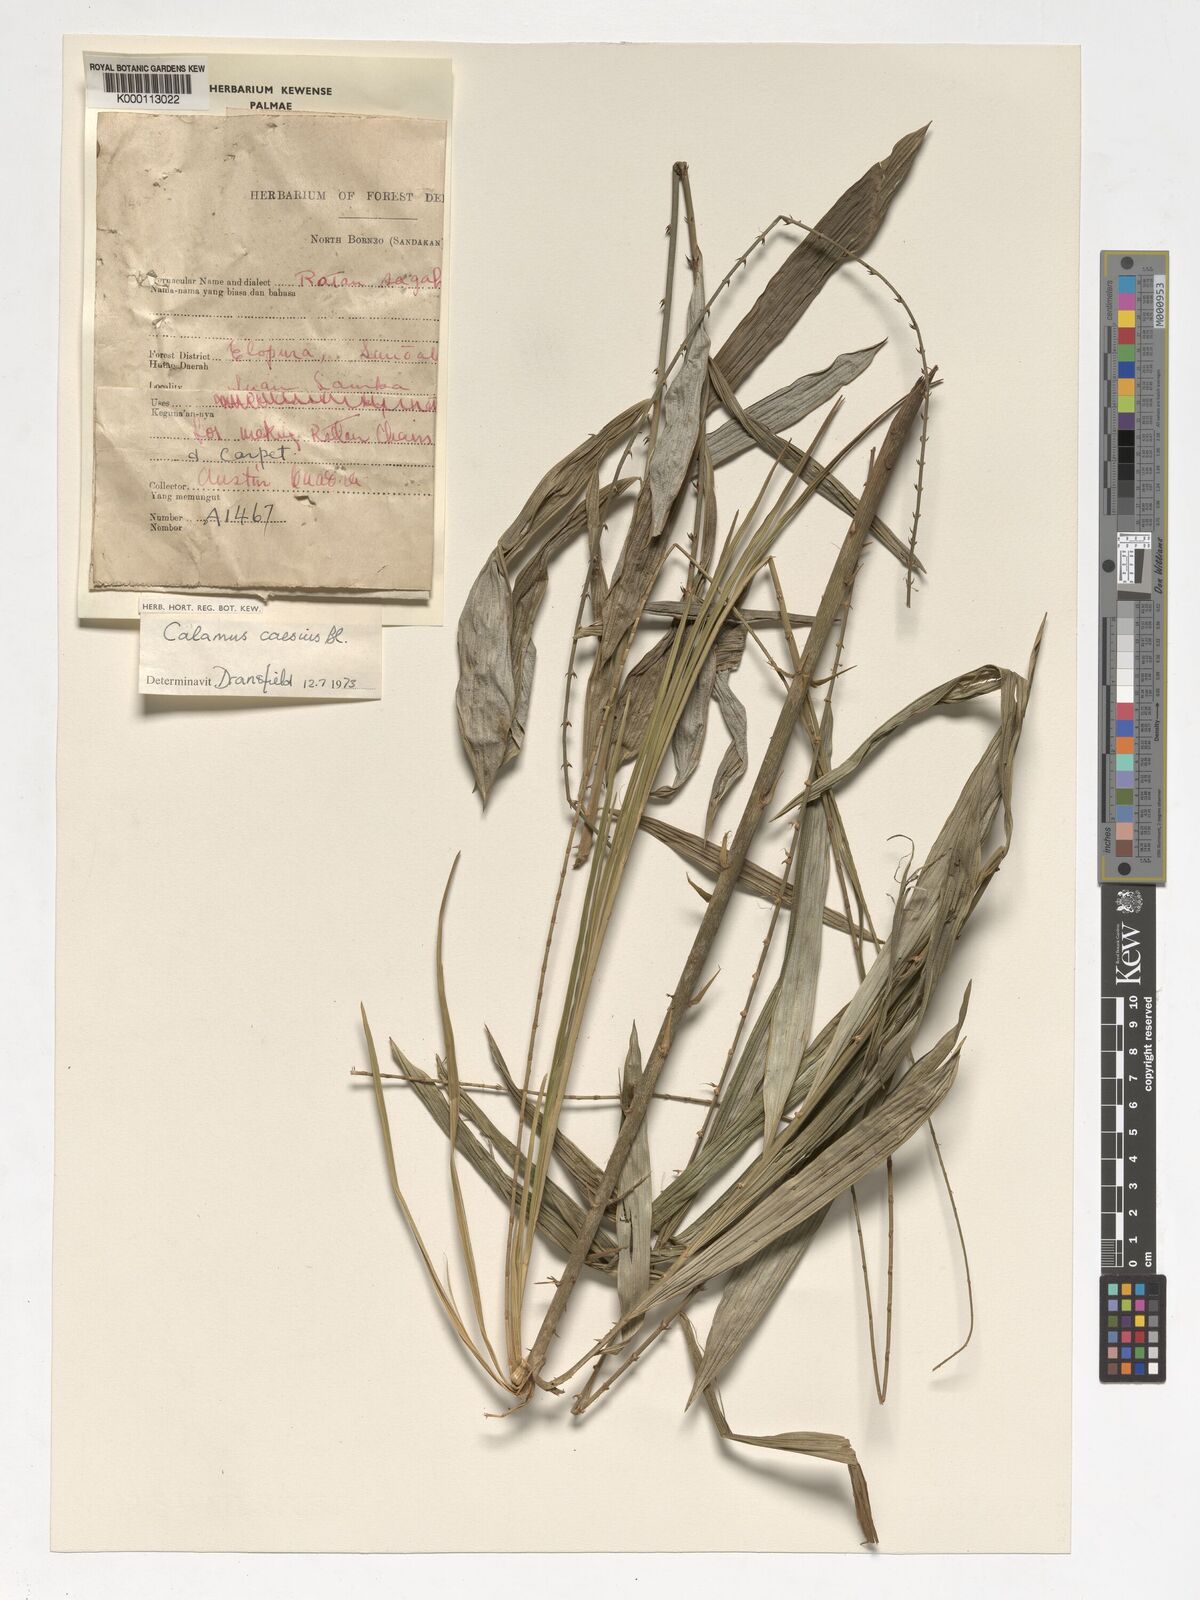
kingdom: Plantae
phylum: Tracheophyta
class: Liliopsida
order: Arecales
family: Arecaceae
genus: Calamus
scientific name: Calamus caesius
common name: Rattan palm
